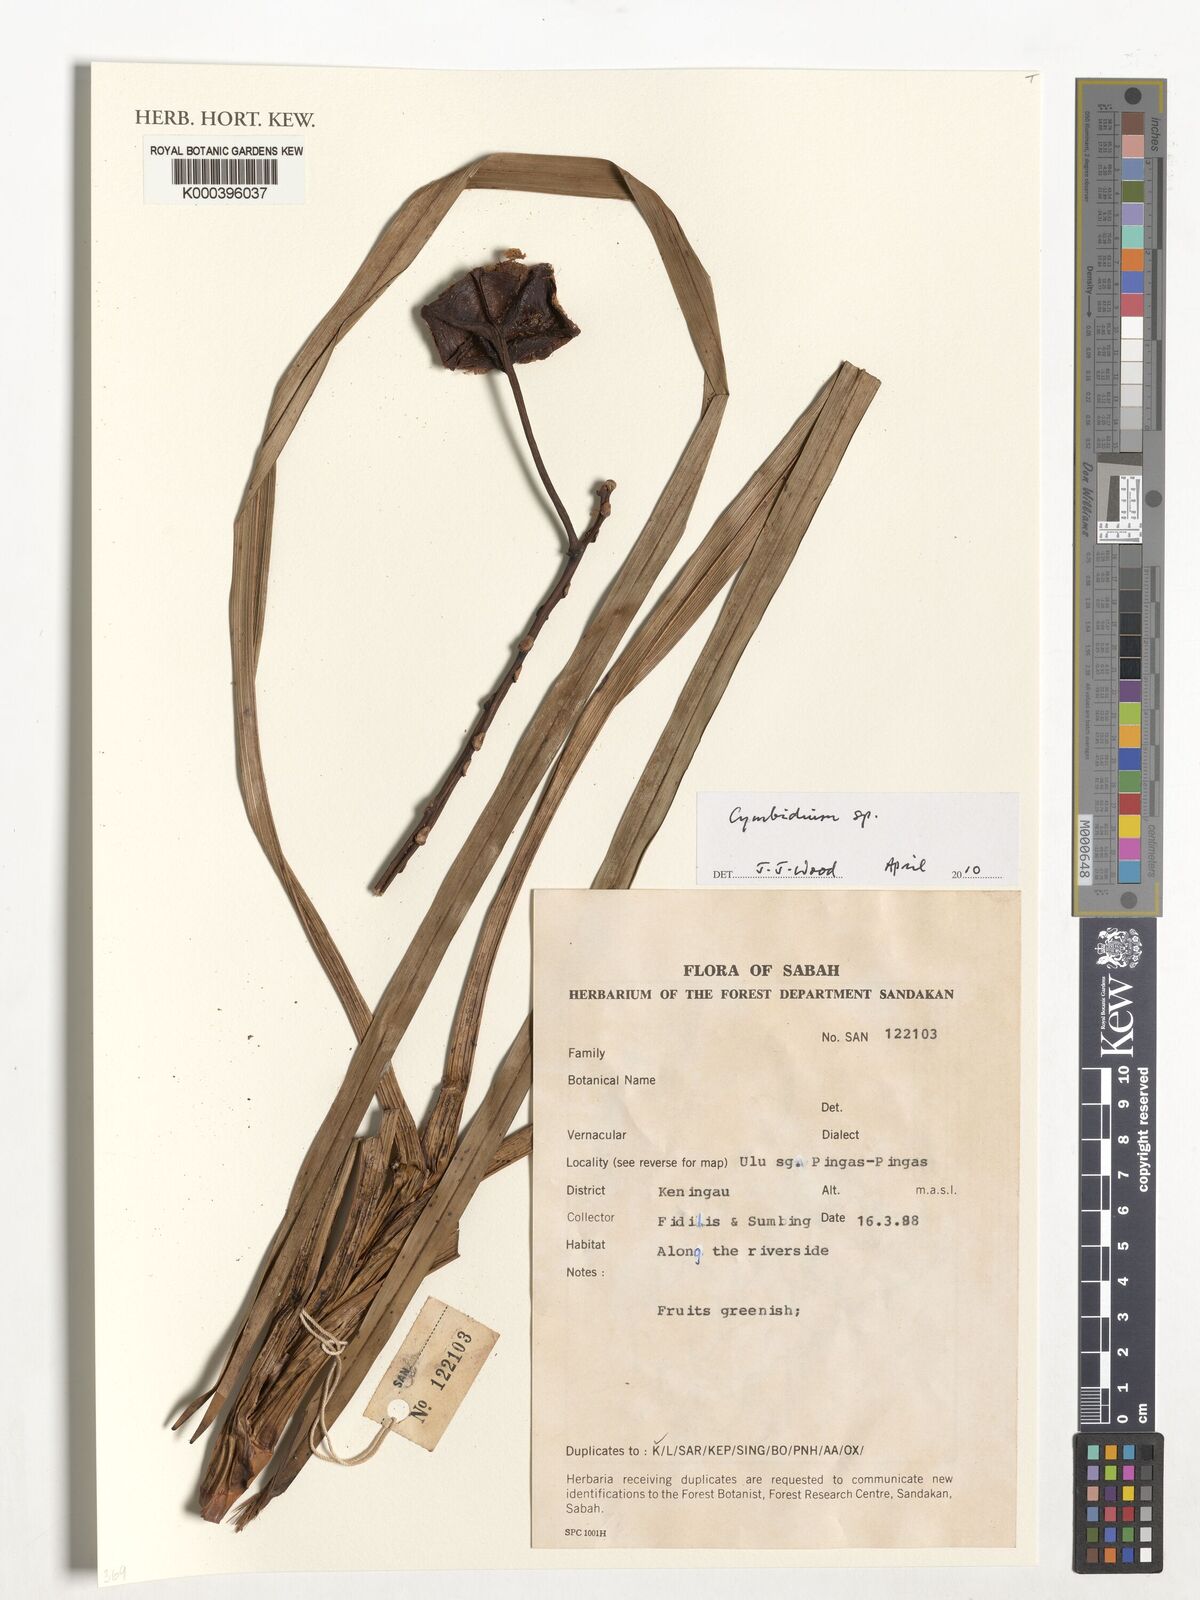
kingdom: Plantae
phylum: Tracheophyta
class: Liliopsida
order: Asparagales
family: Orchidaceae
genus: Cymbidium
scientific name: Cymbidium
